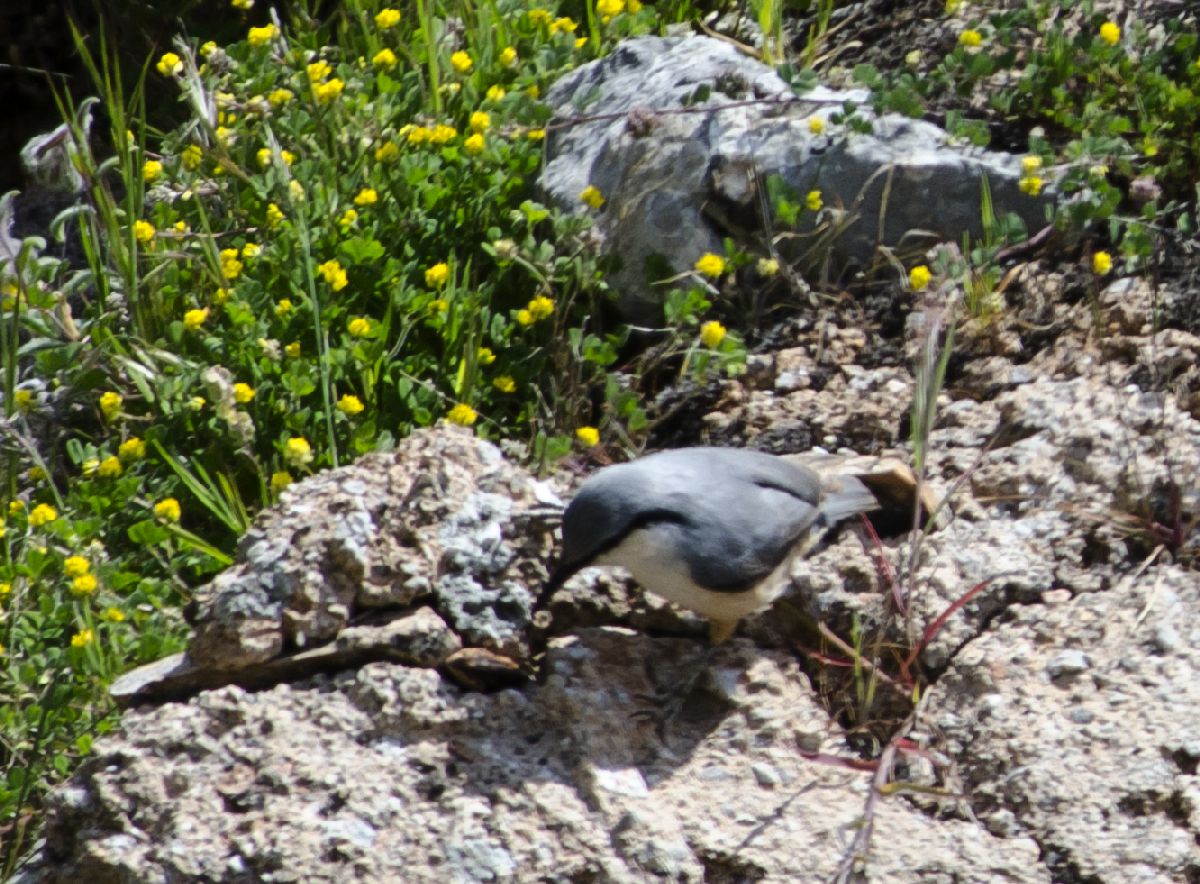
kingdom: Animalia
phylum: Chordata
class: Aves
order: Passeriformes
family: Sittidae
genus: Sitta
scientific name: Sitta neumayer
